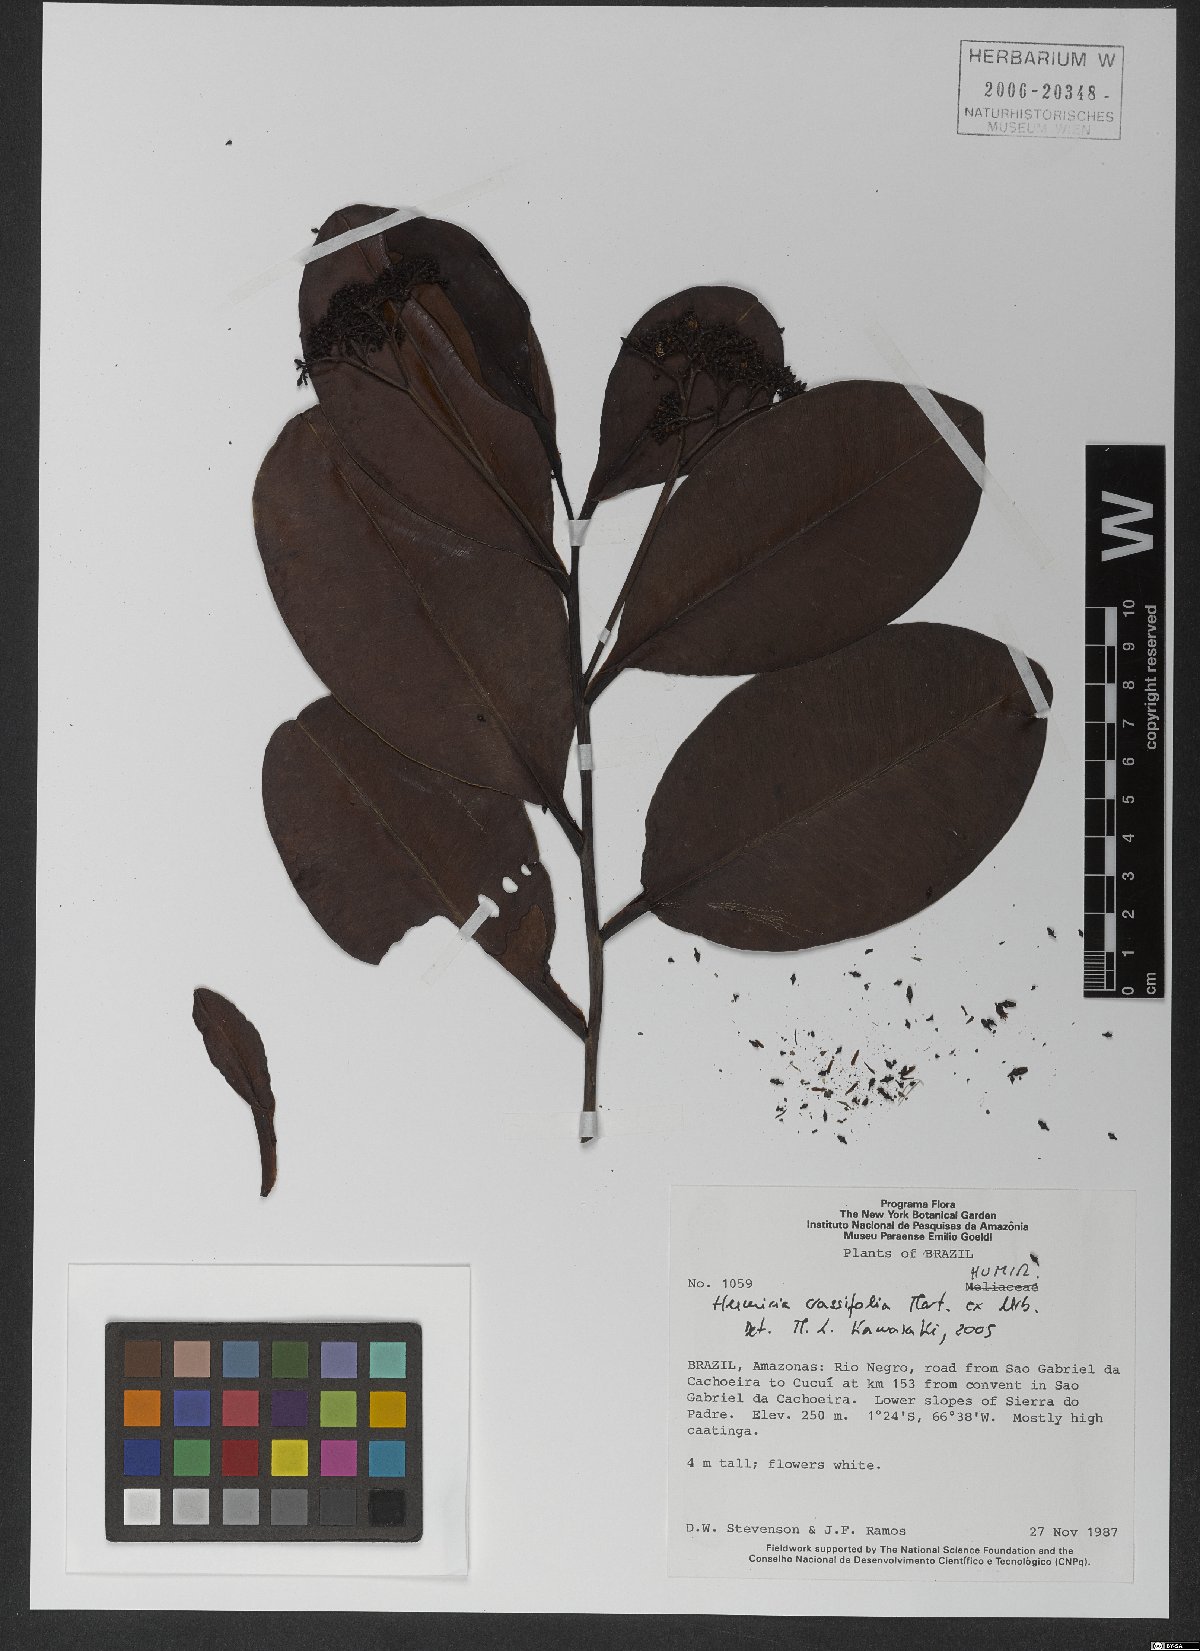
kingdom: Plantae
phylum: Tracheophyta
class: Magnoliopsida
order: Malpighiales
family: Humiriaceae
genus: Humiria
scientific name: Humiria crassifolia
